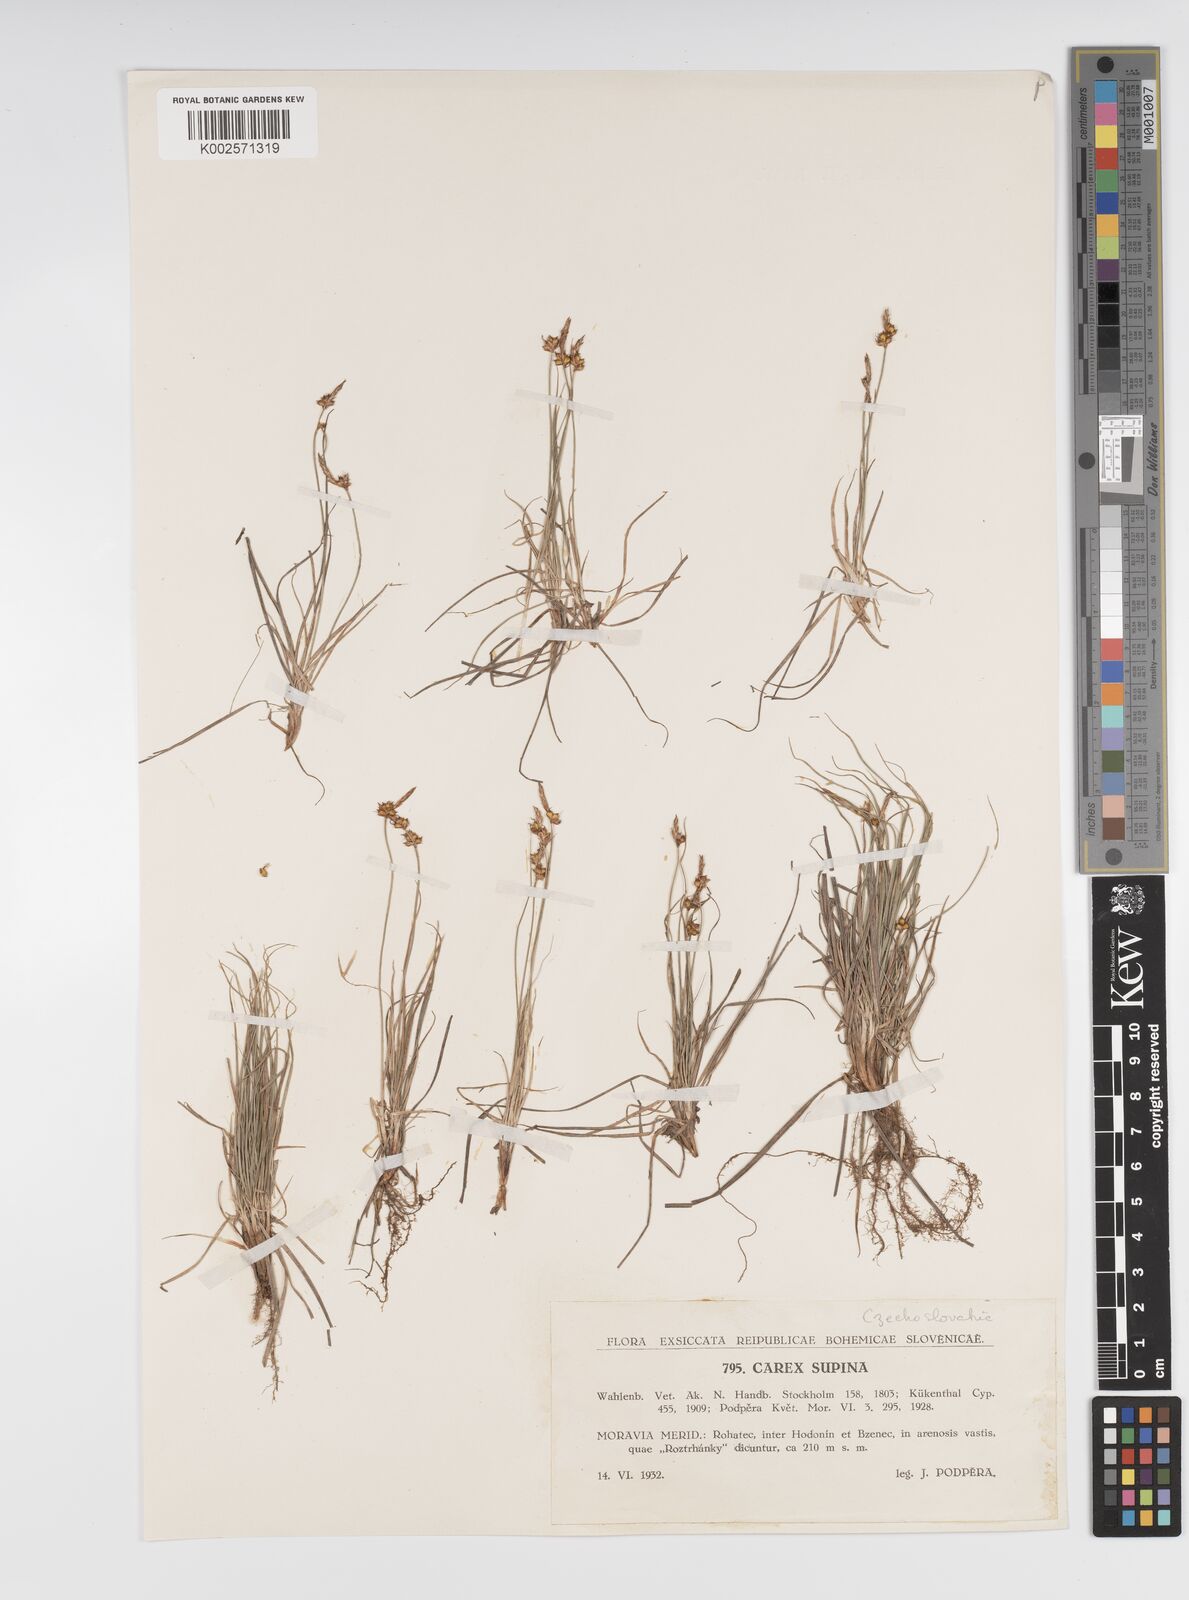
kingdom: Plantae
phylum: Tracheophyta
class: Liliopsida
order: Poales
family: Cyperaceae
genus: Carex
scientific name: Carex supina
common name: Lying-back sedge
